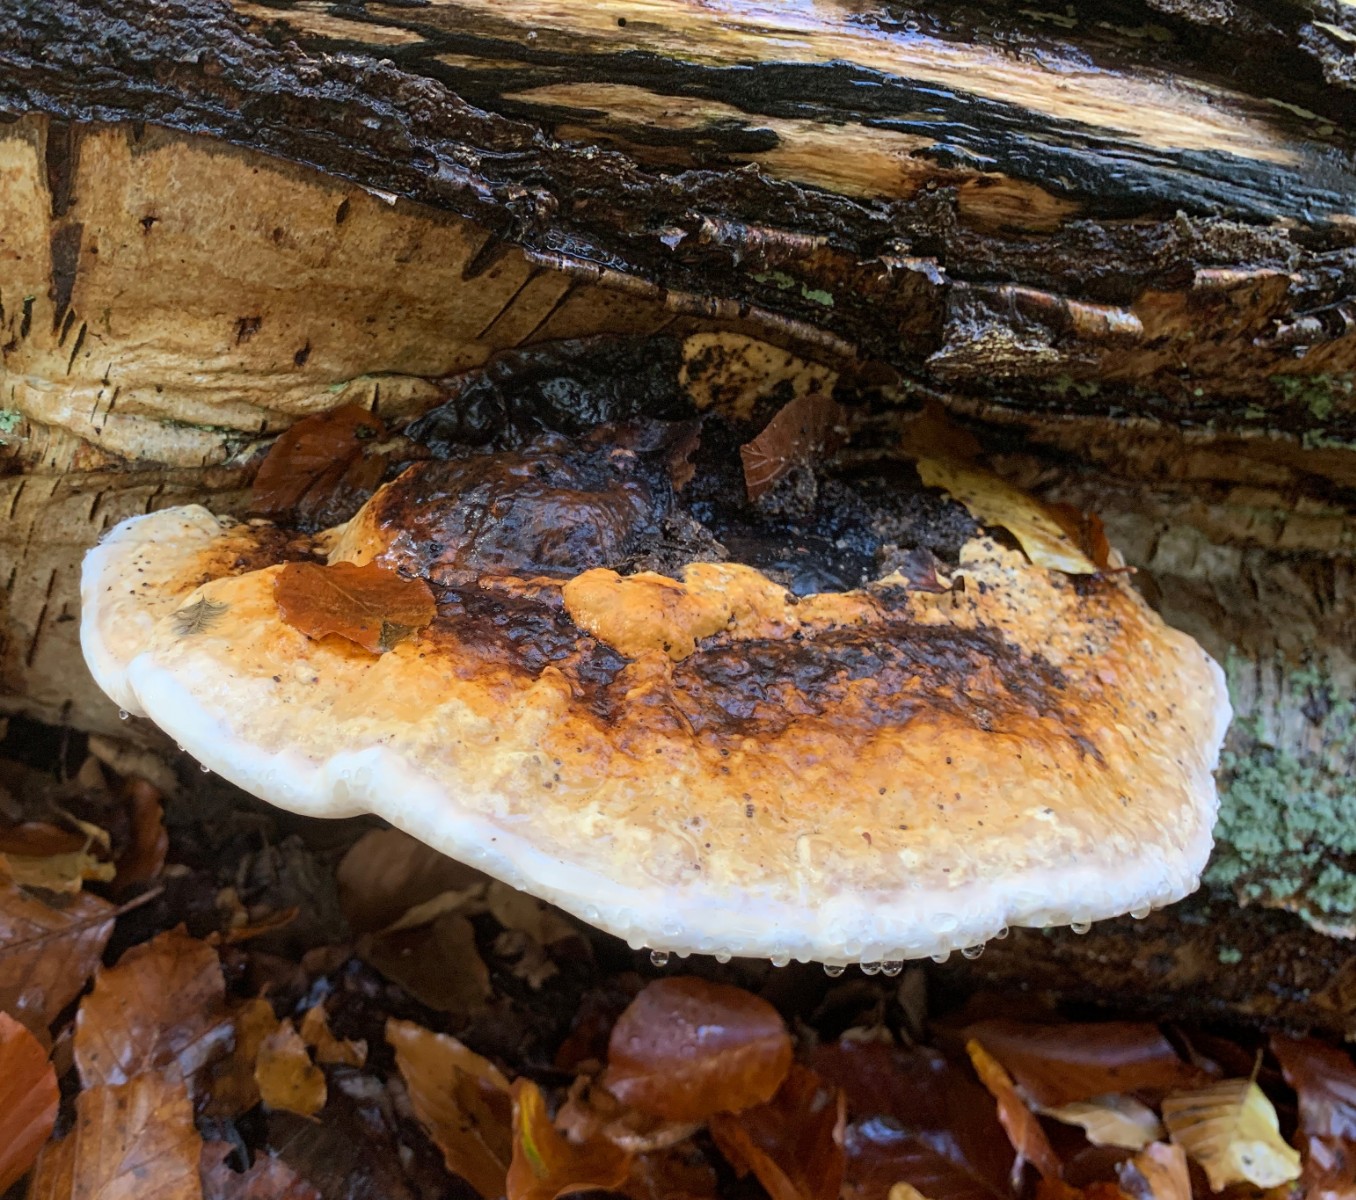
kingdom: Fungi
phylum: Basidiomycota
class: Agaricomycetes
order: Polyporales
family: Fomitopsidaceae
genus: Fomitopsis
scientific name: Fomitopsis pinicola
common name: randbæltet hovporesvamp
